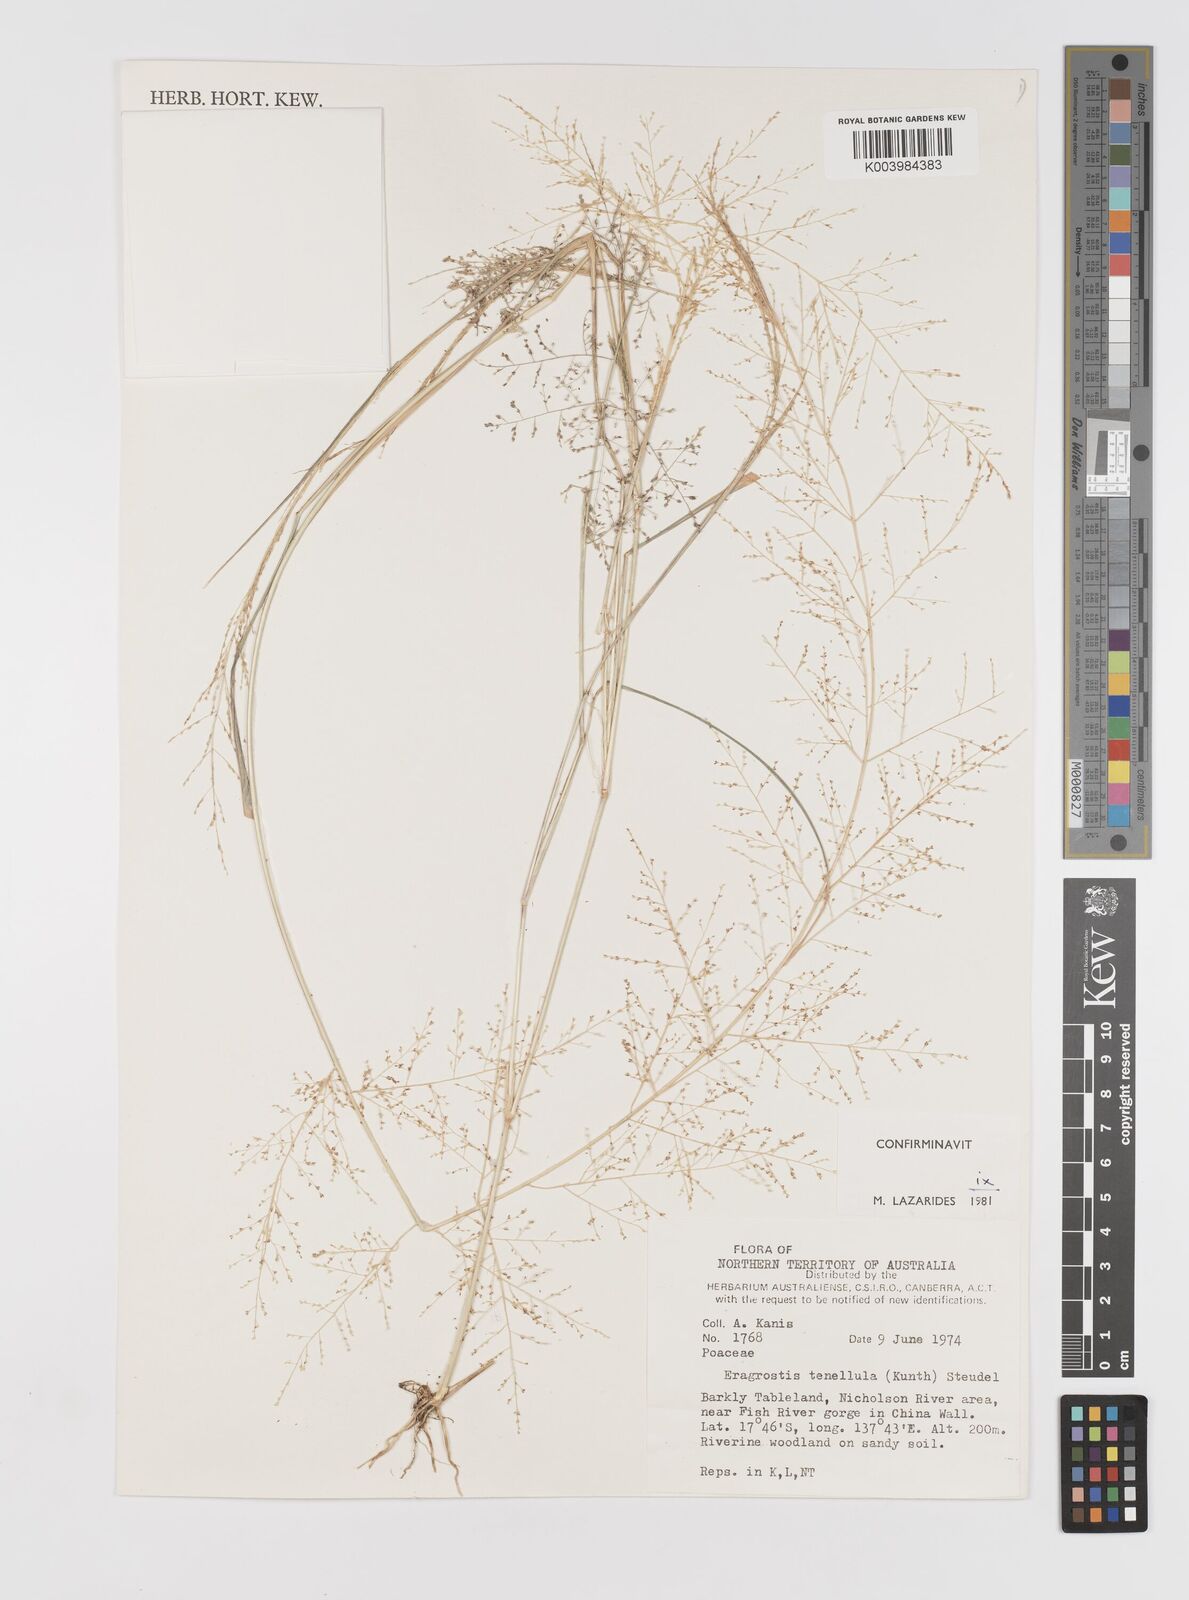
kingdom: Plantae
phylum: Tracheophyta
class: Liliopsida
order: Poales
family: Poaceae
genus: Eragrostis
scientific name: Eragrostis tenellula
